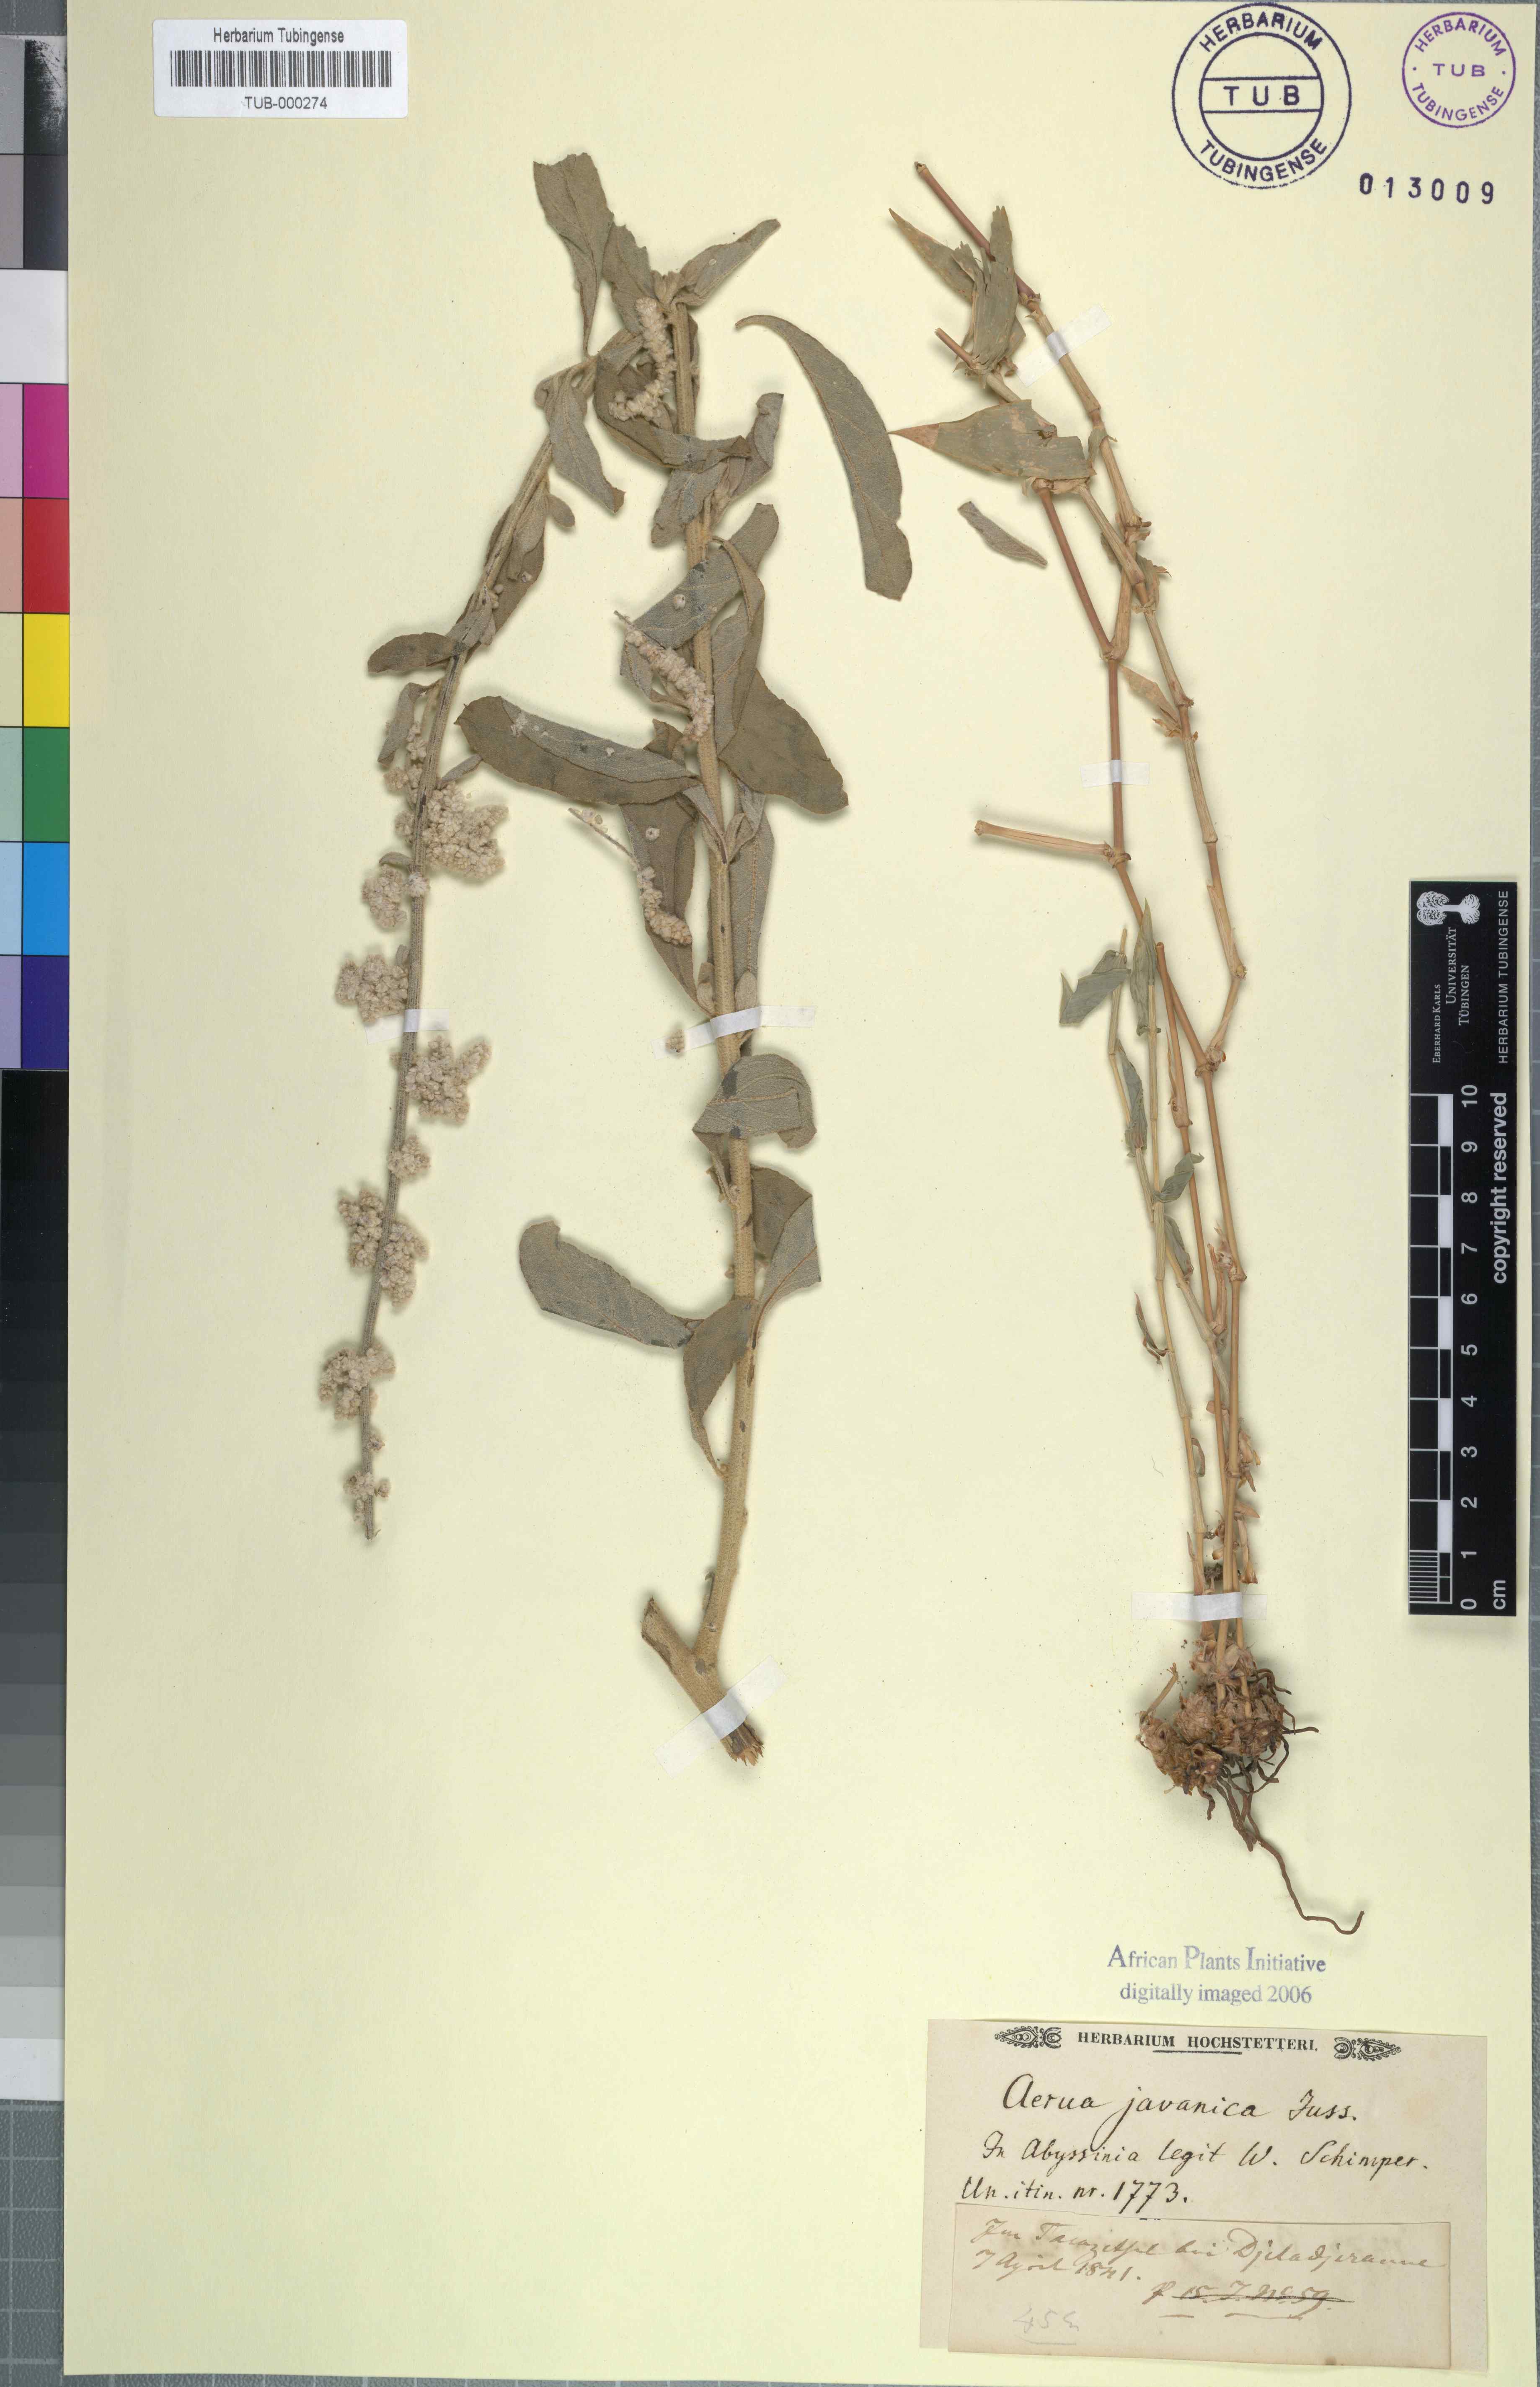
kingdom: Plantae
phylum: Tracheophyta
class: Magnoliopsida
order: Caryophyllales
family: Amaranthaceae
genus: Aerva
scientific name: Aerva javanica
